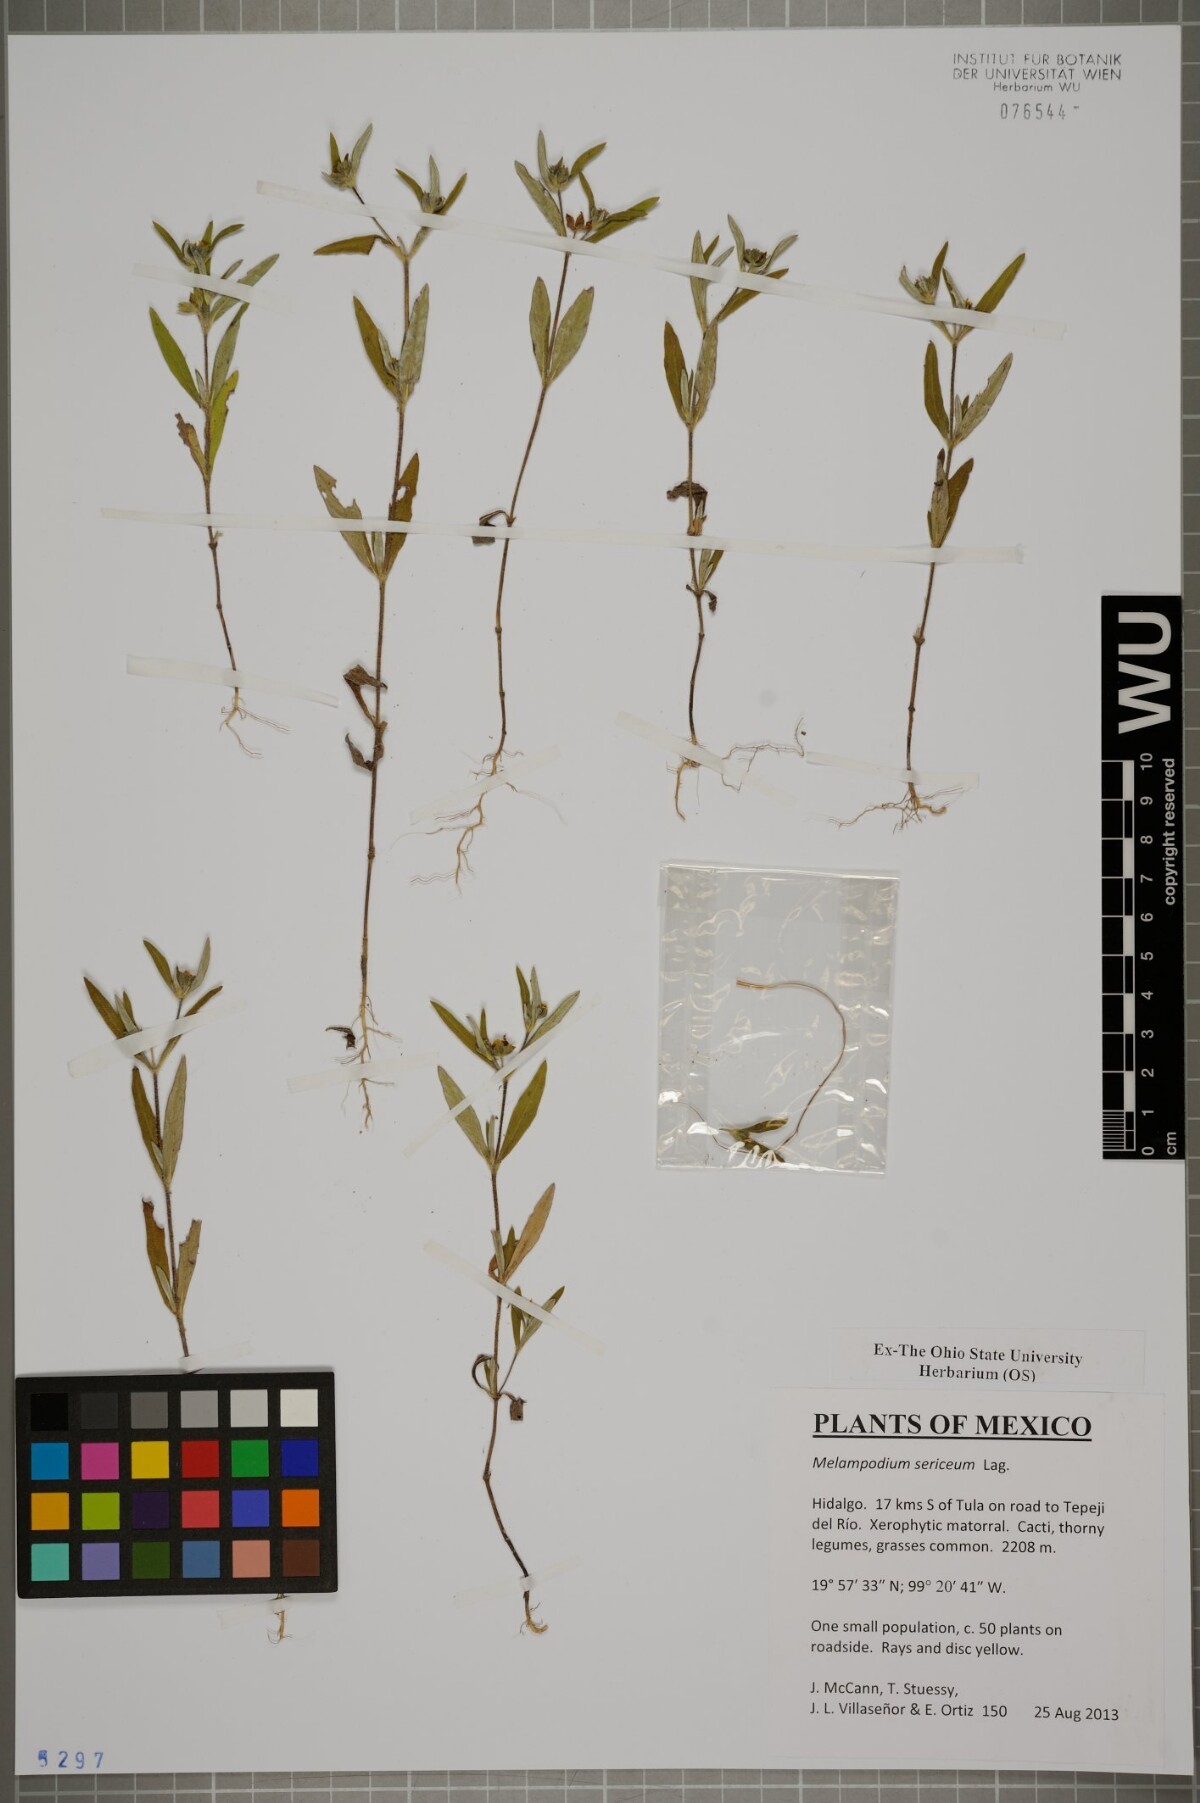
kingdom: Plantae
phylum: Tracheophyta
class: Magnoliopsida
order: Asterales
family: Asteraceae
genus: Melampodium
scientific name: Melampodium sericeum
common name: Rough blackfoot
